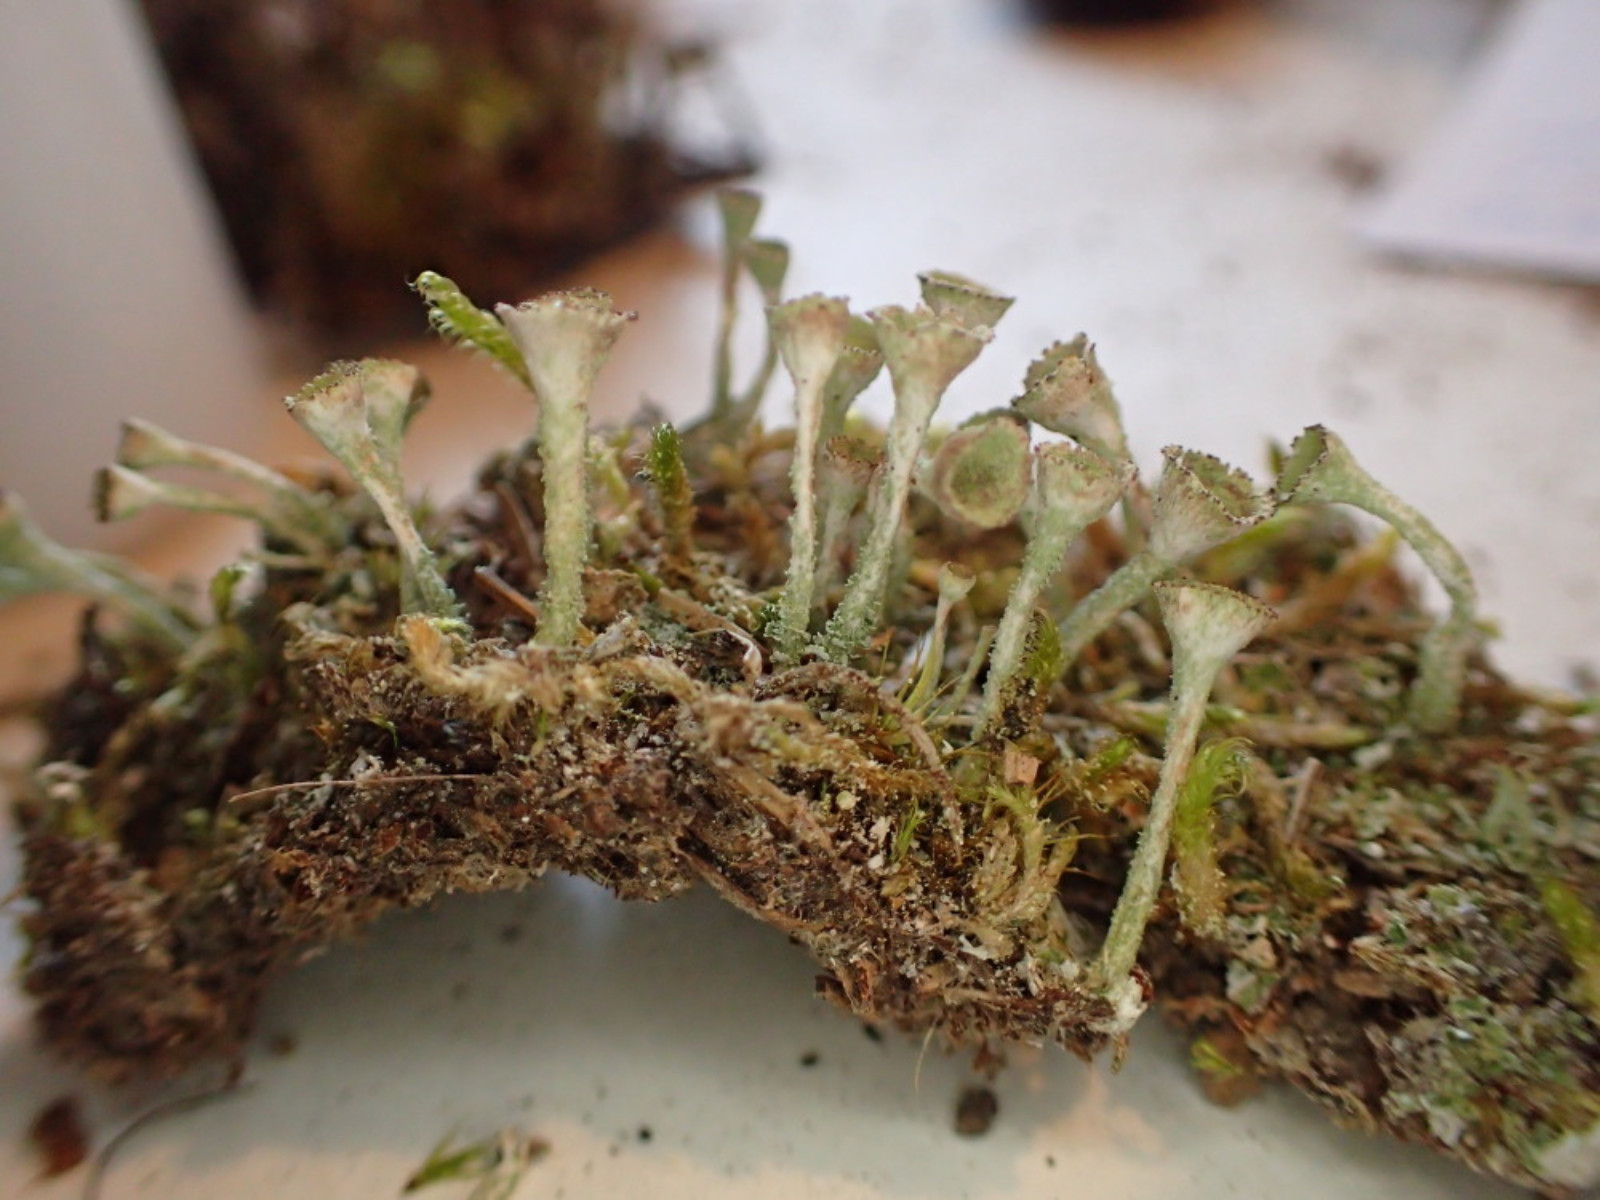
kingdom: Fungi
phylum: Ascomycota
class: Lecanoromycetes
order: Lecanorales
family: Cladoniaceae
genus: Cladonia
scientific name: Cladonia fimbriata
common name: bleggrøn bægerlav
